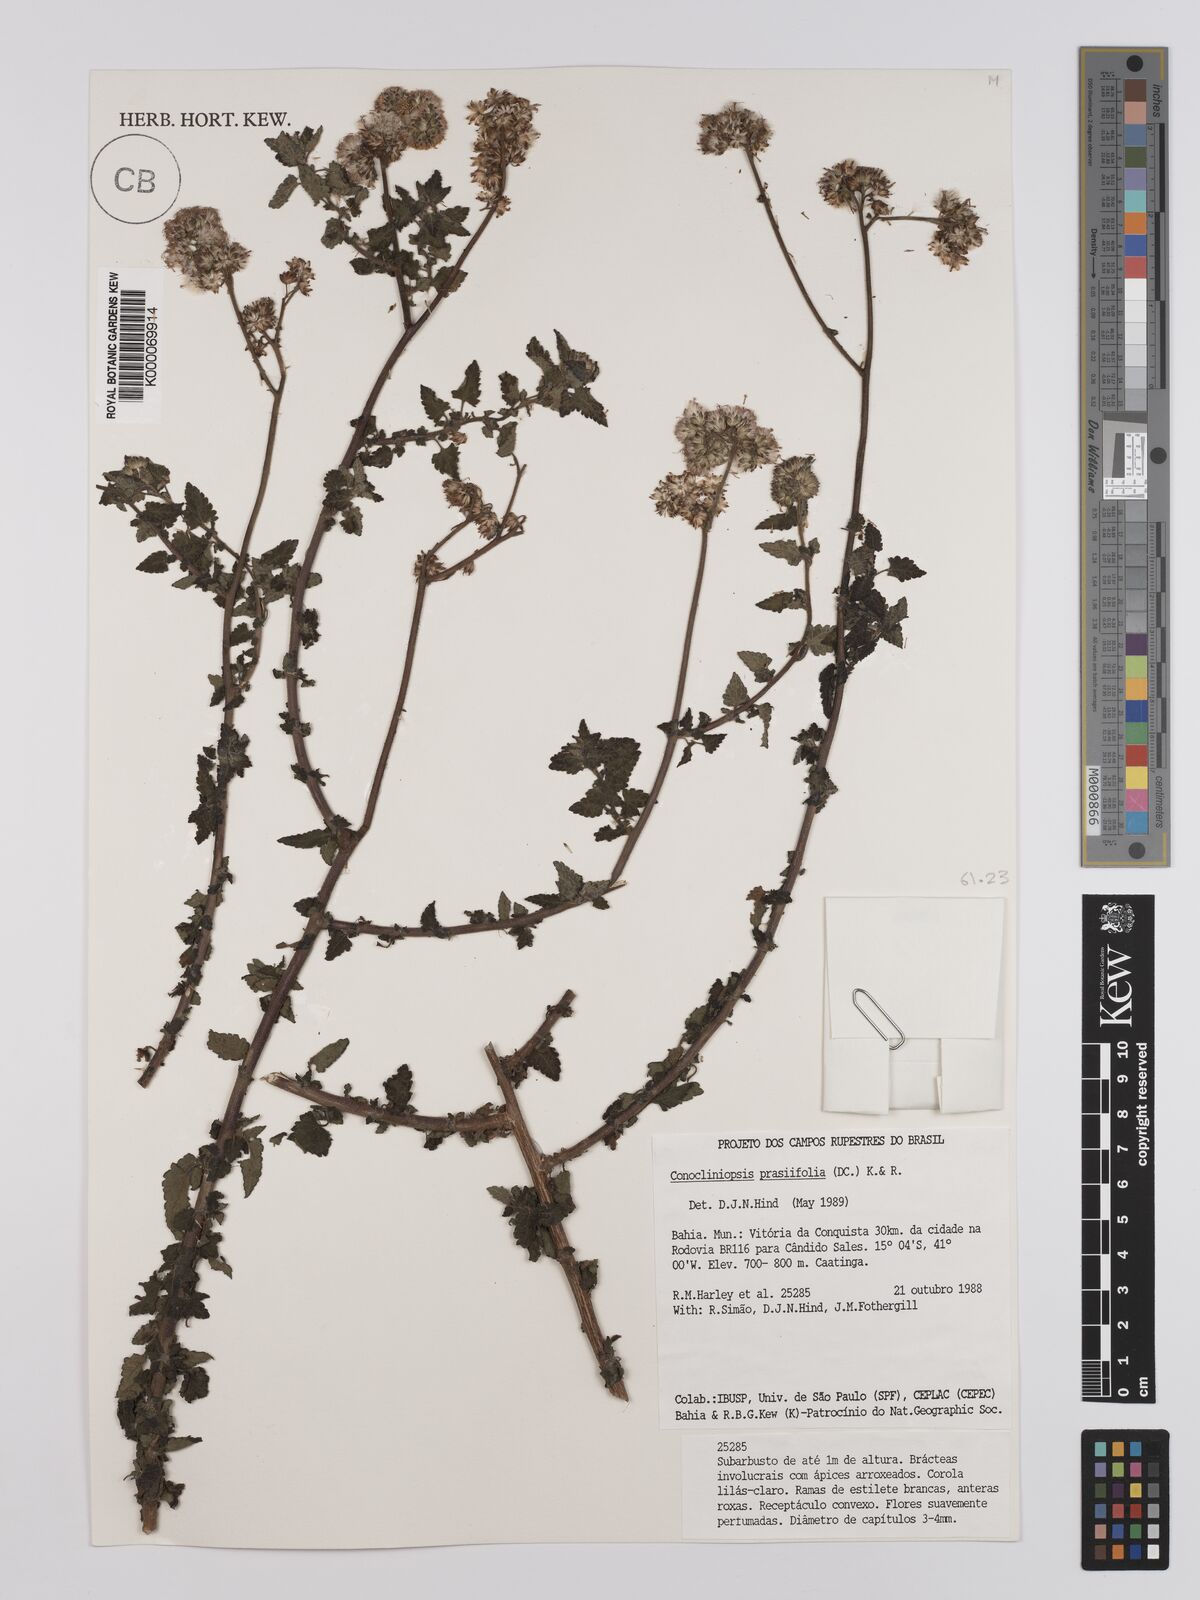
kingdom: Plantae
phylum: Tracheophyta
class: Magnoliopsida
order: Asterales
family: Asteraceae
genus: Conocliniopsis
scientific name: Conocliniopsis grossedentata
